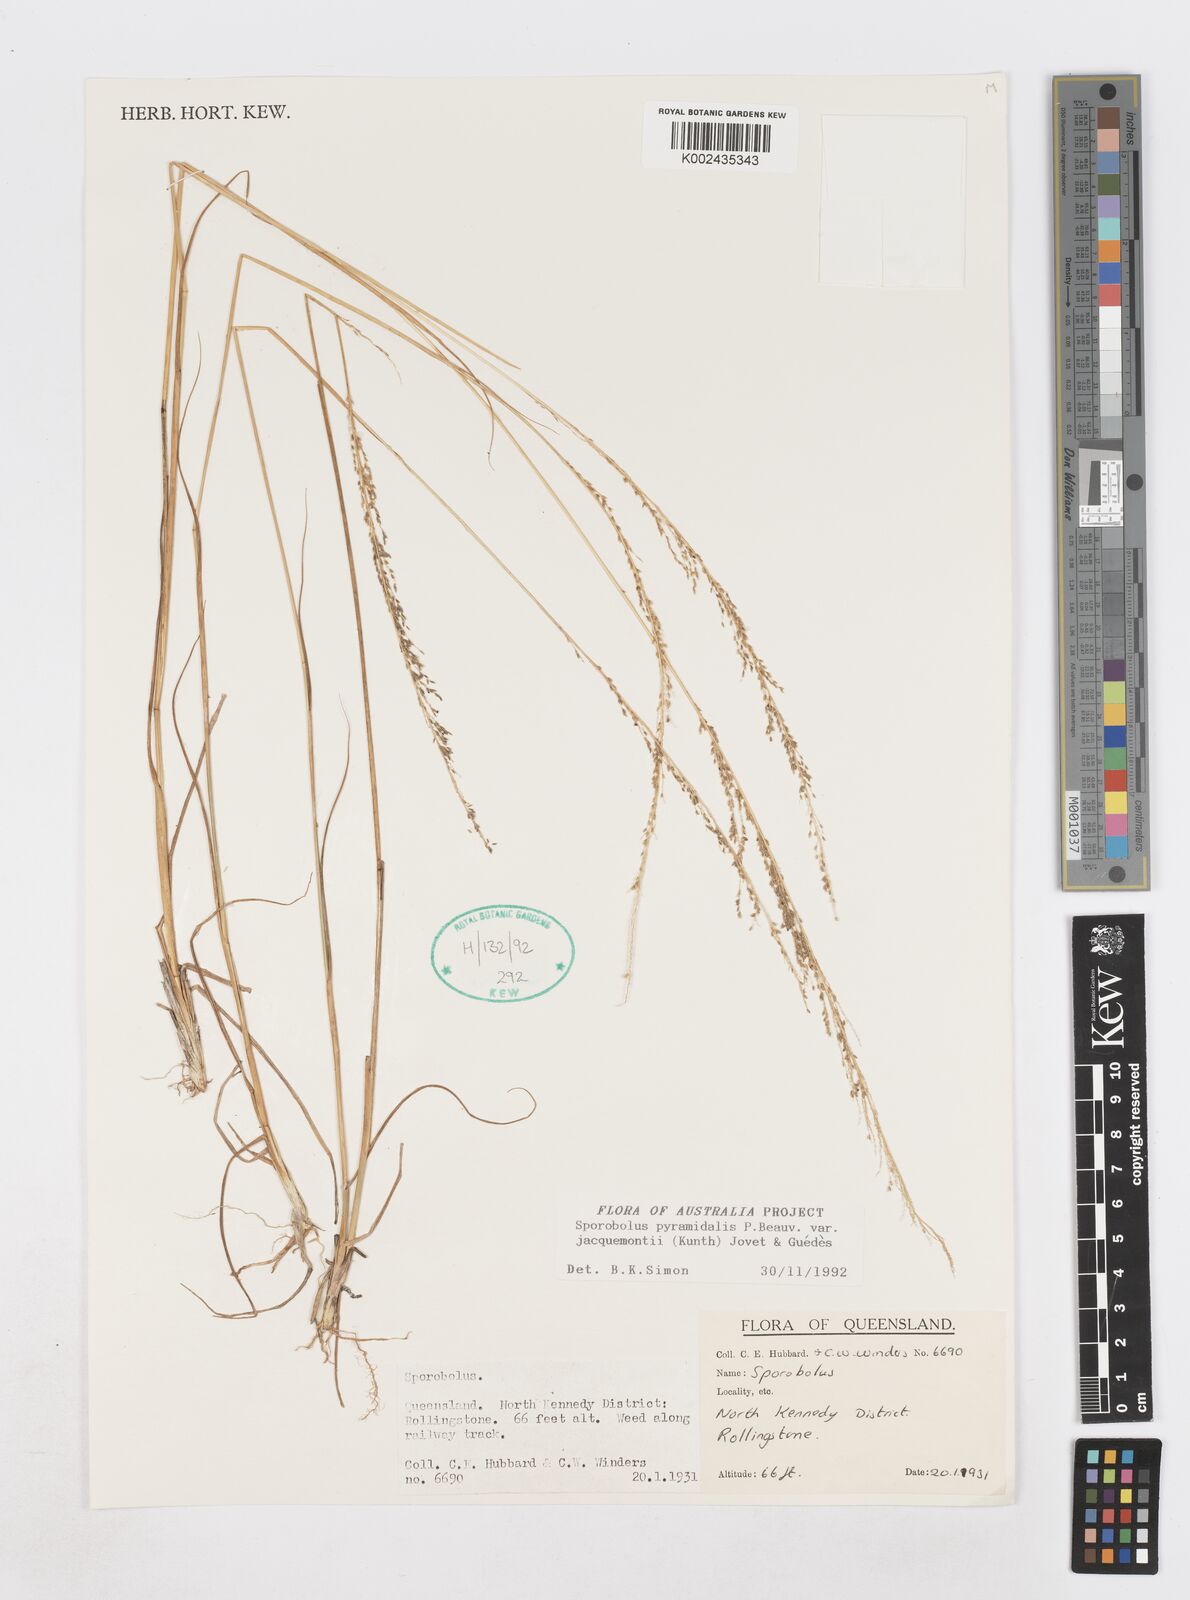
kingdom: Plantae
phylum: Tracheophyta
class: Liliopsida
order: Poales
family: Poaceae
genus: Sporobolus
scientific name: Sporobolus pyramidalis
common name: West indian dropseed
